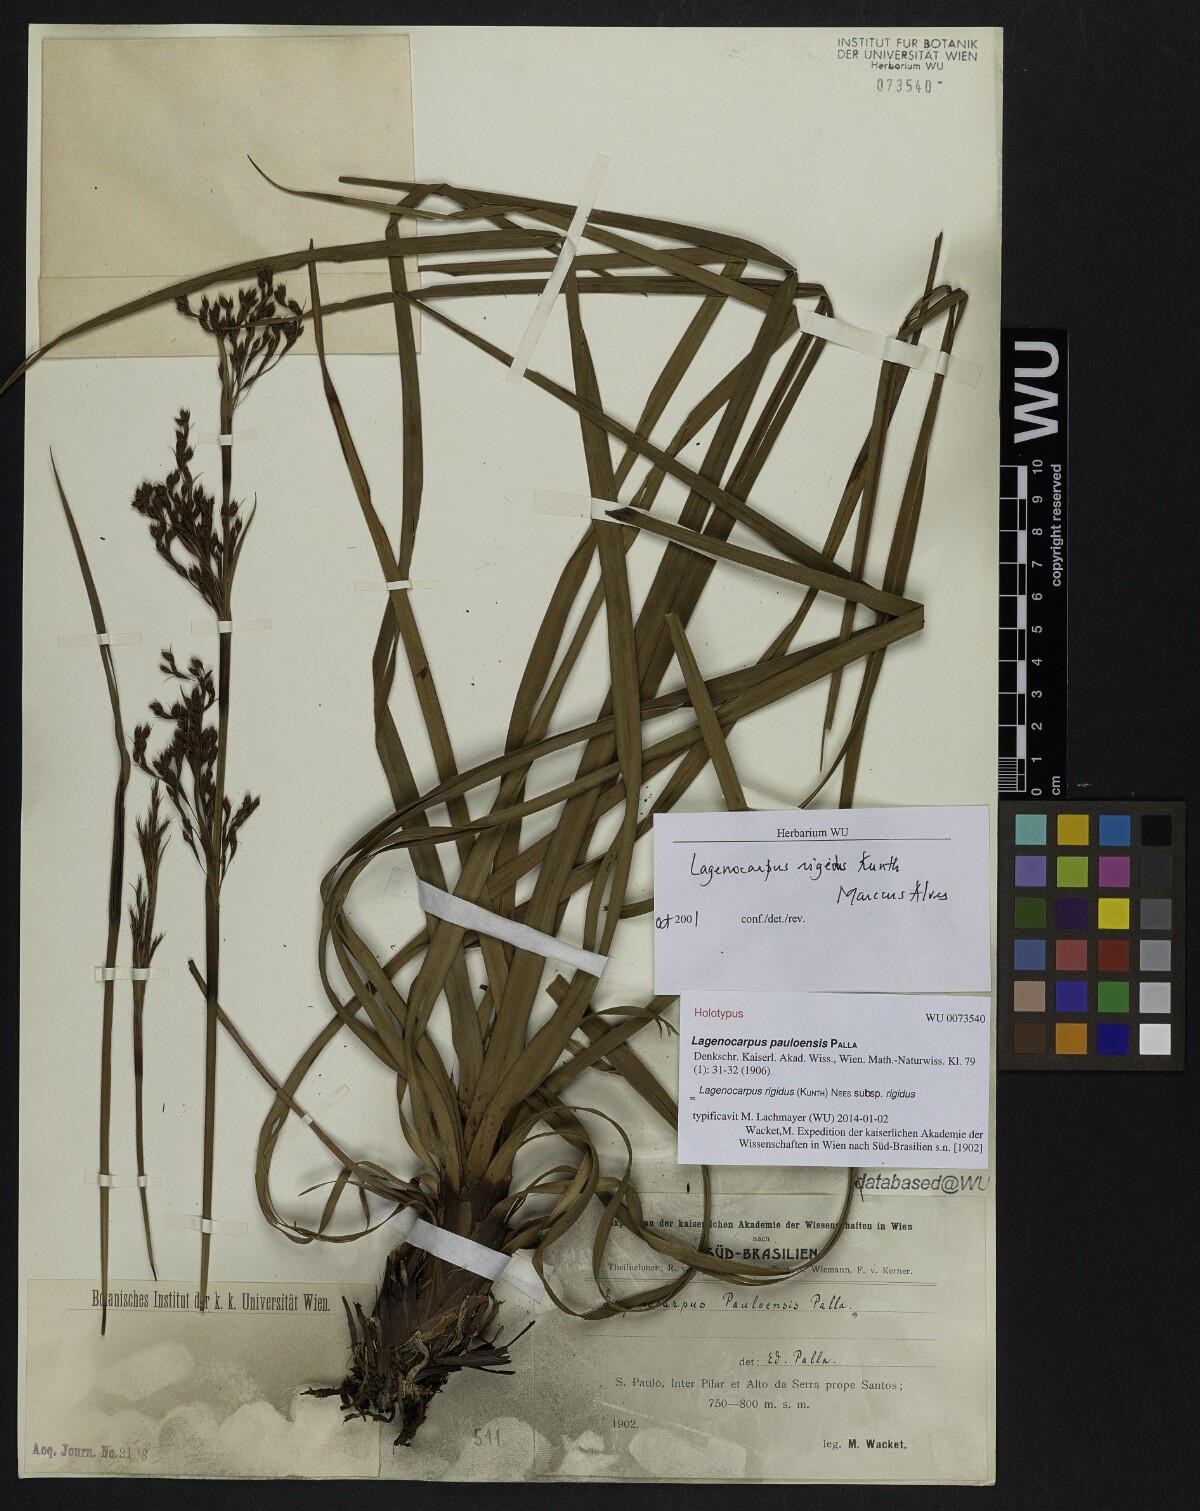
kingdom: Plantae
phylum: Tracheophyta
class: Liliopsida
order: Poales
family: Cyperaceae
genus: Lagenocarpus
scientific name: Lagenocarpus rigidus
